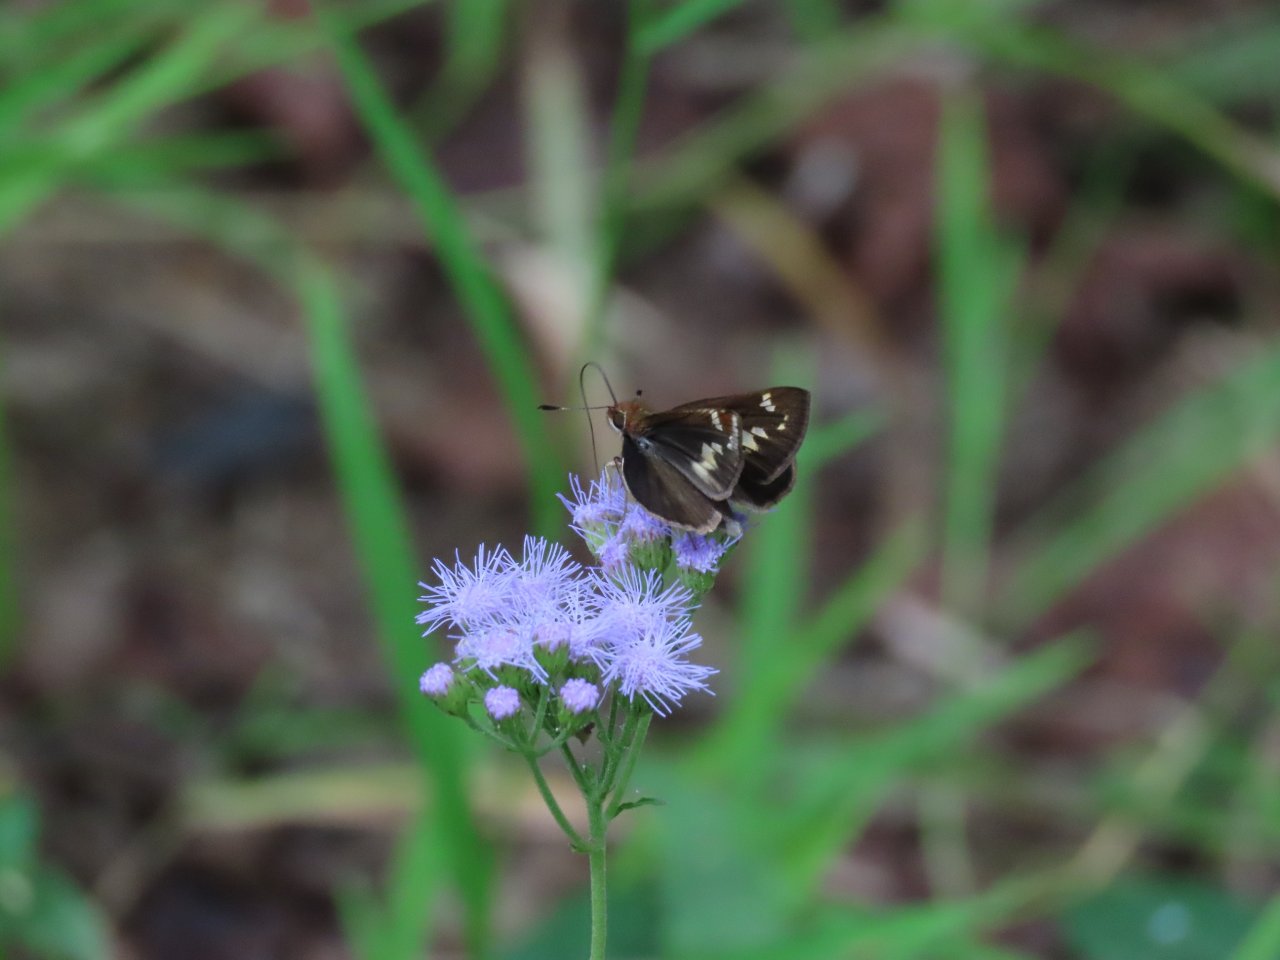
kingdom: Animalia
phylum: Arthropoda
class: Insecta
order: Lepidoptera
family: Hesperiidae
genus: Lon
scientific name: Lon zabulon
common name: Zabulon Skipper
